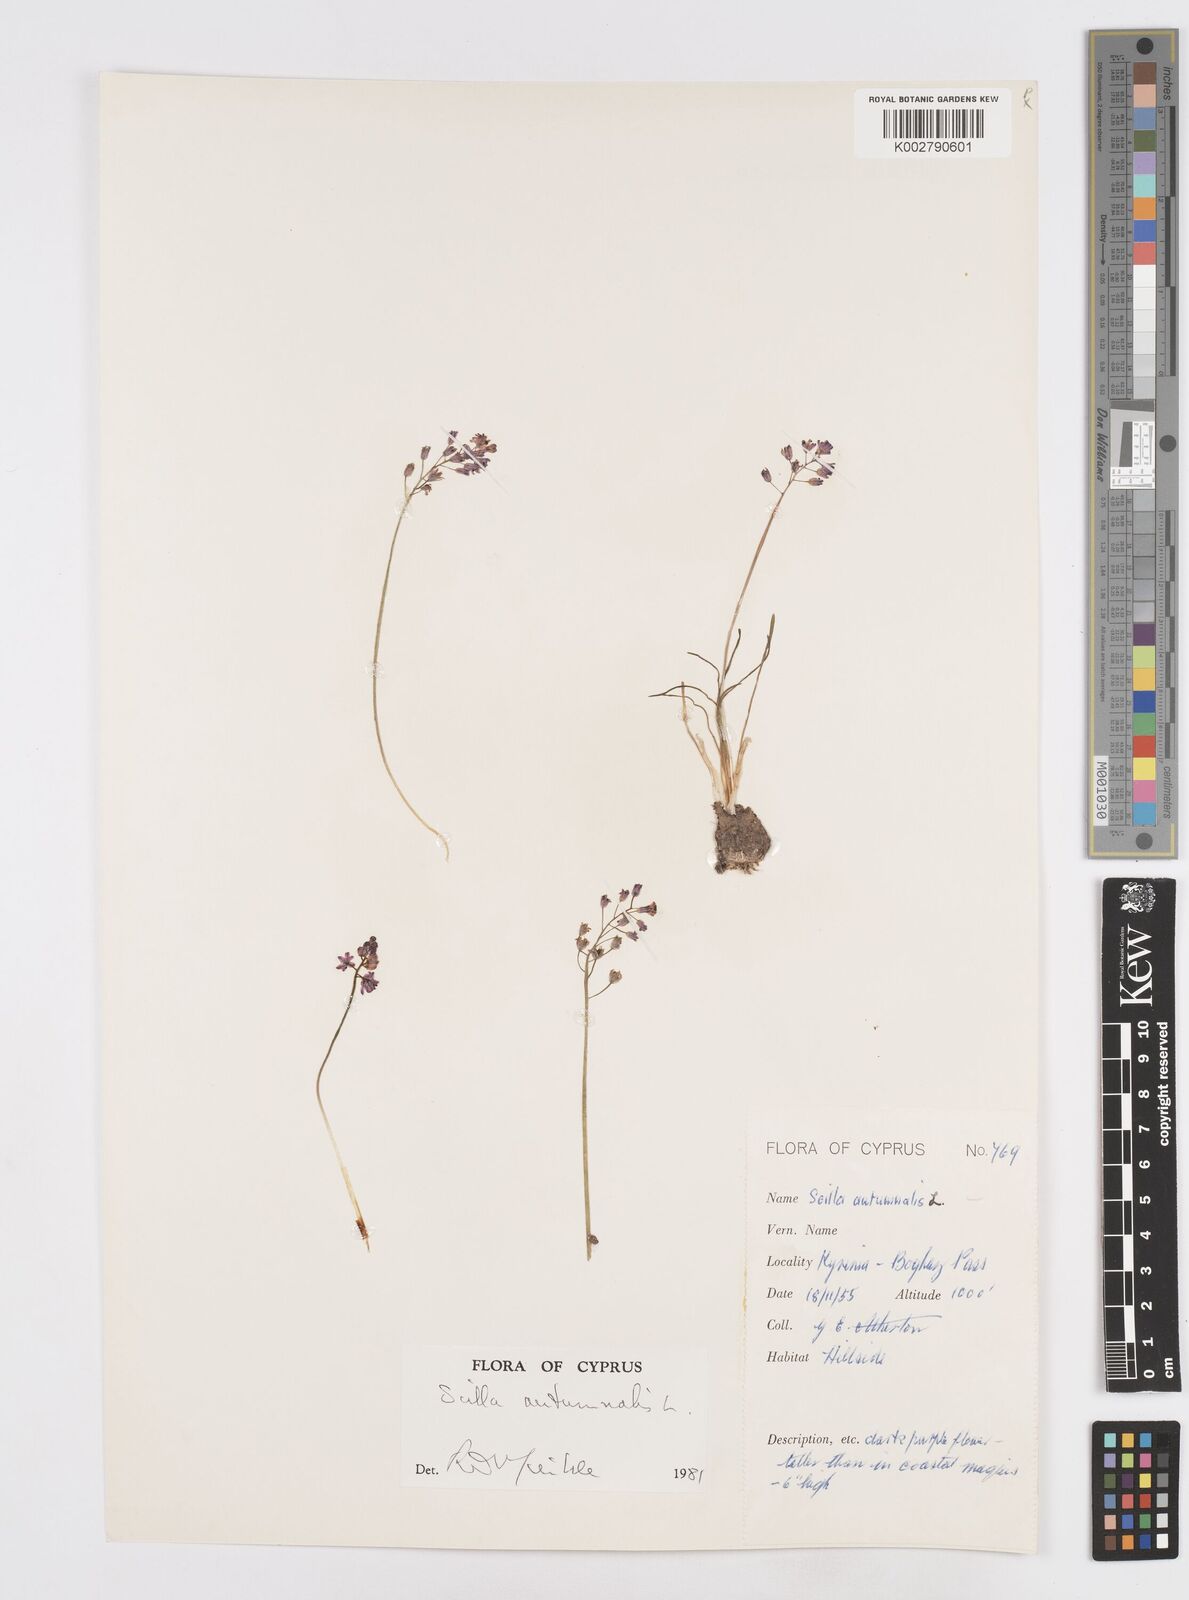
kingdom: Plantae
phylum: Tracheophyta
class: Liliopsida
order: Asparagales
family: Asparagaceae
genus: Prospero
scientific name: Prospero autumnale
